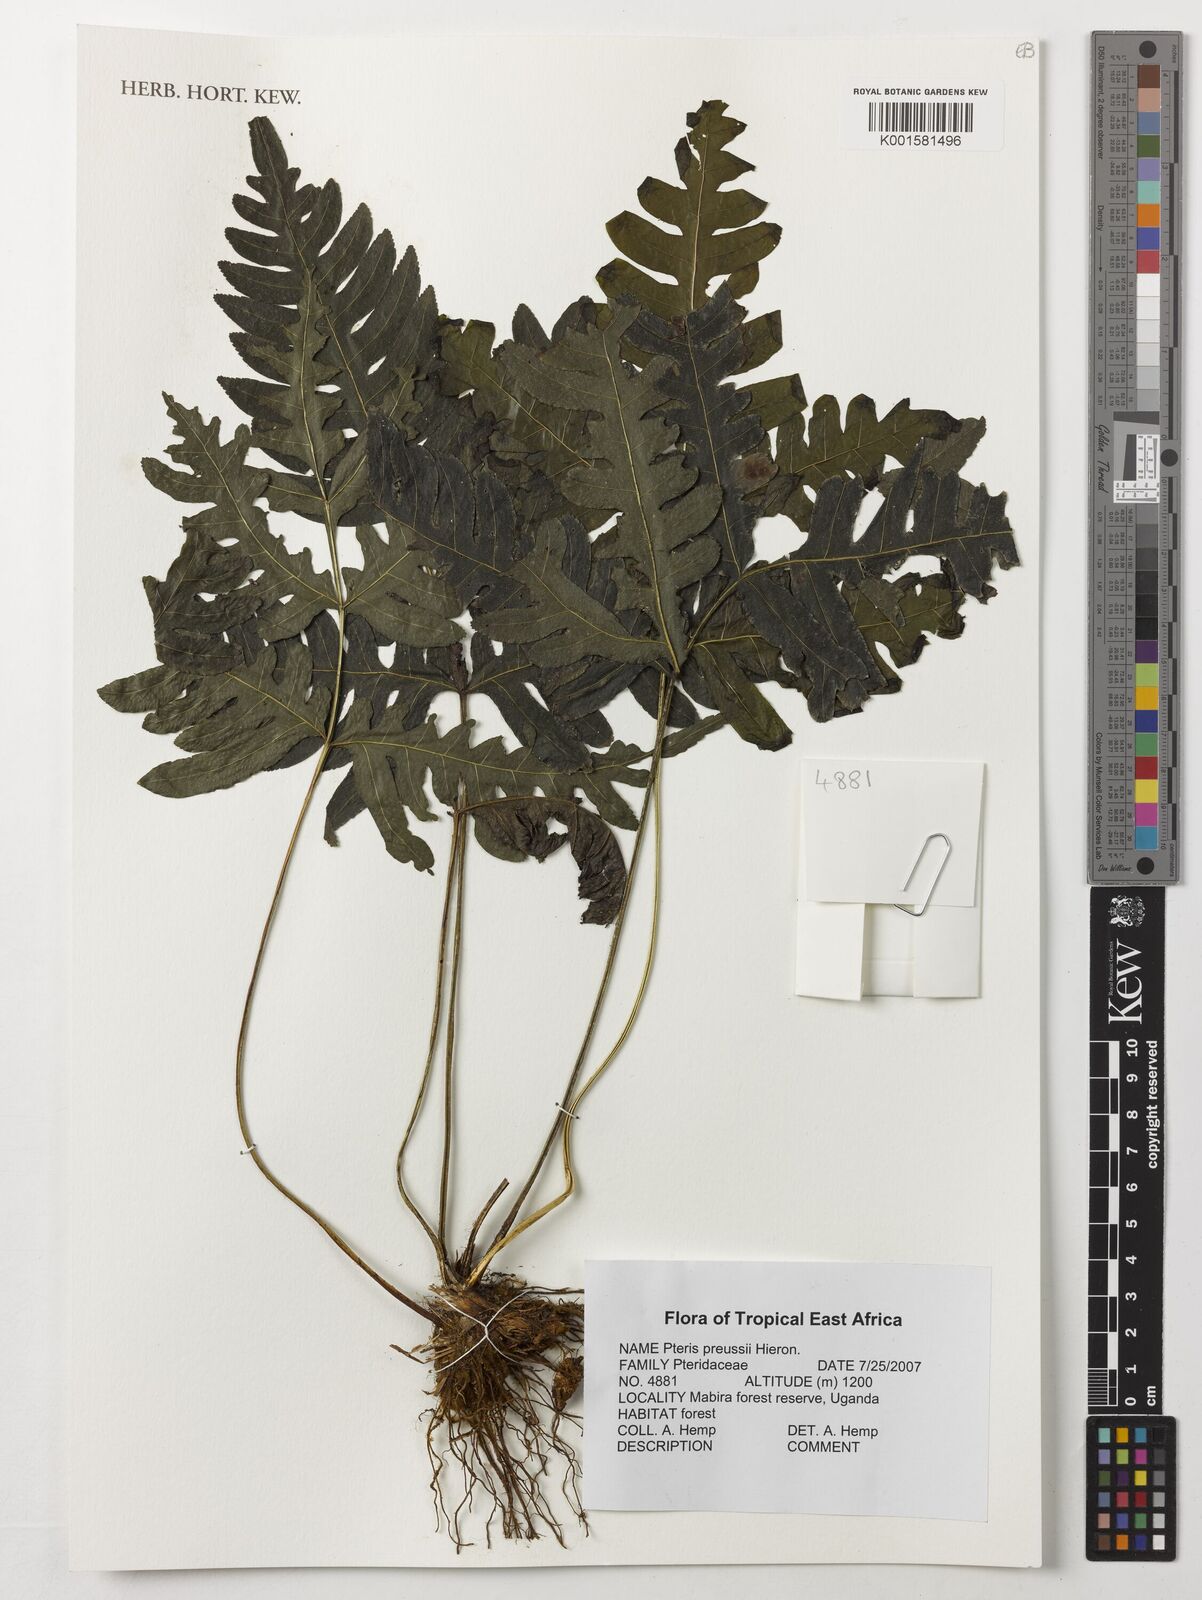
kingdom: Plantae
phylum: Tracheophyta
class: Polypodiopsida
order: Polypodiales
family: Pteridaceae
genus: Pteris
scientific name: Pteris preussii
